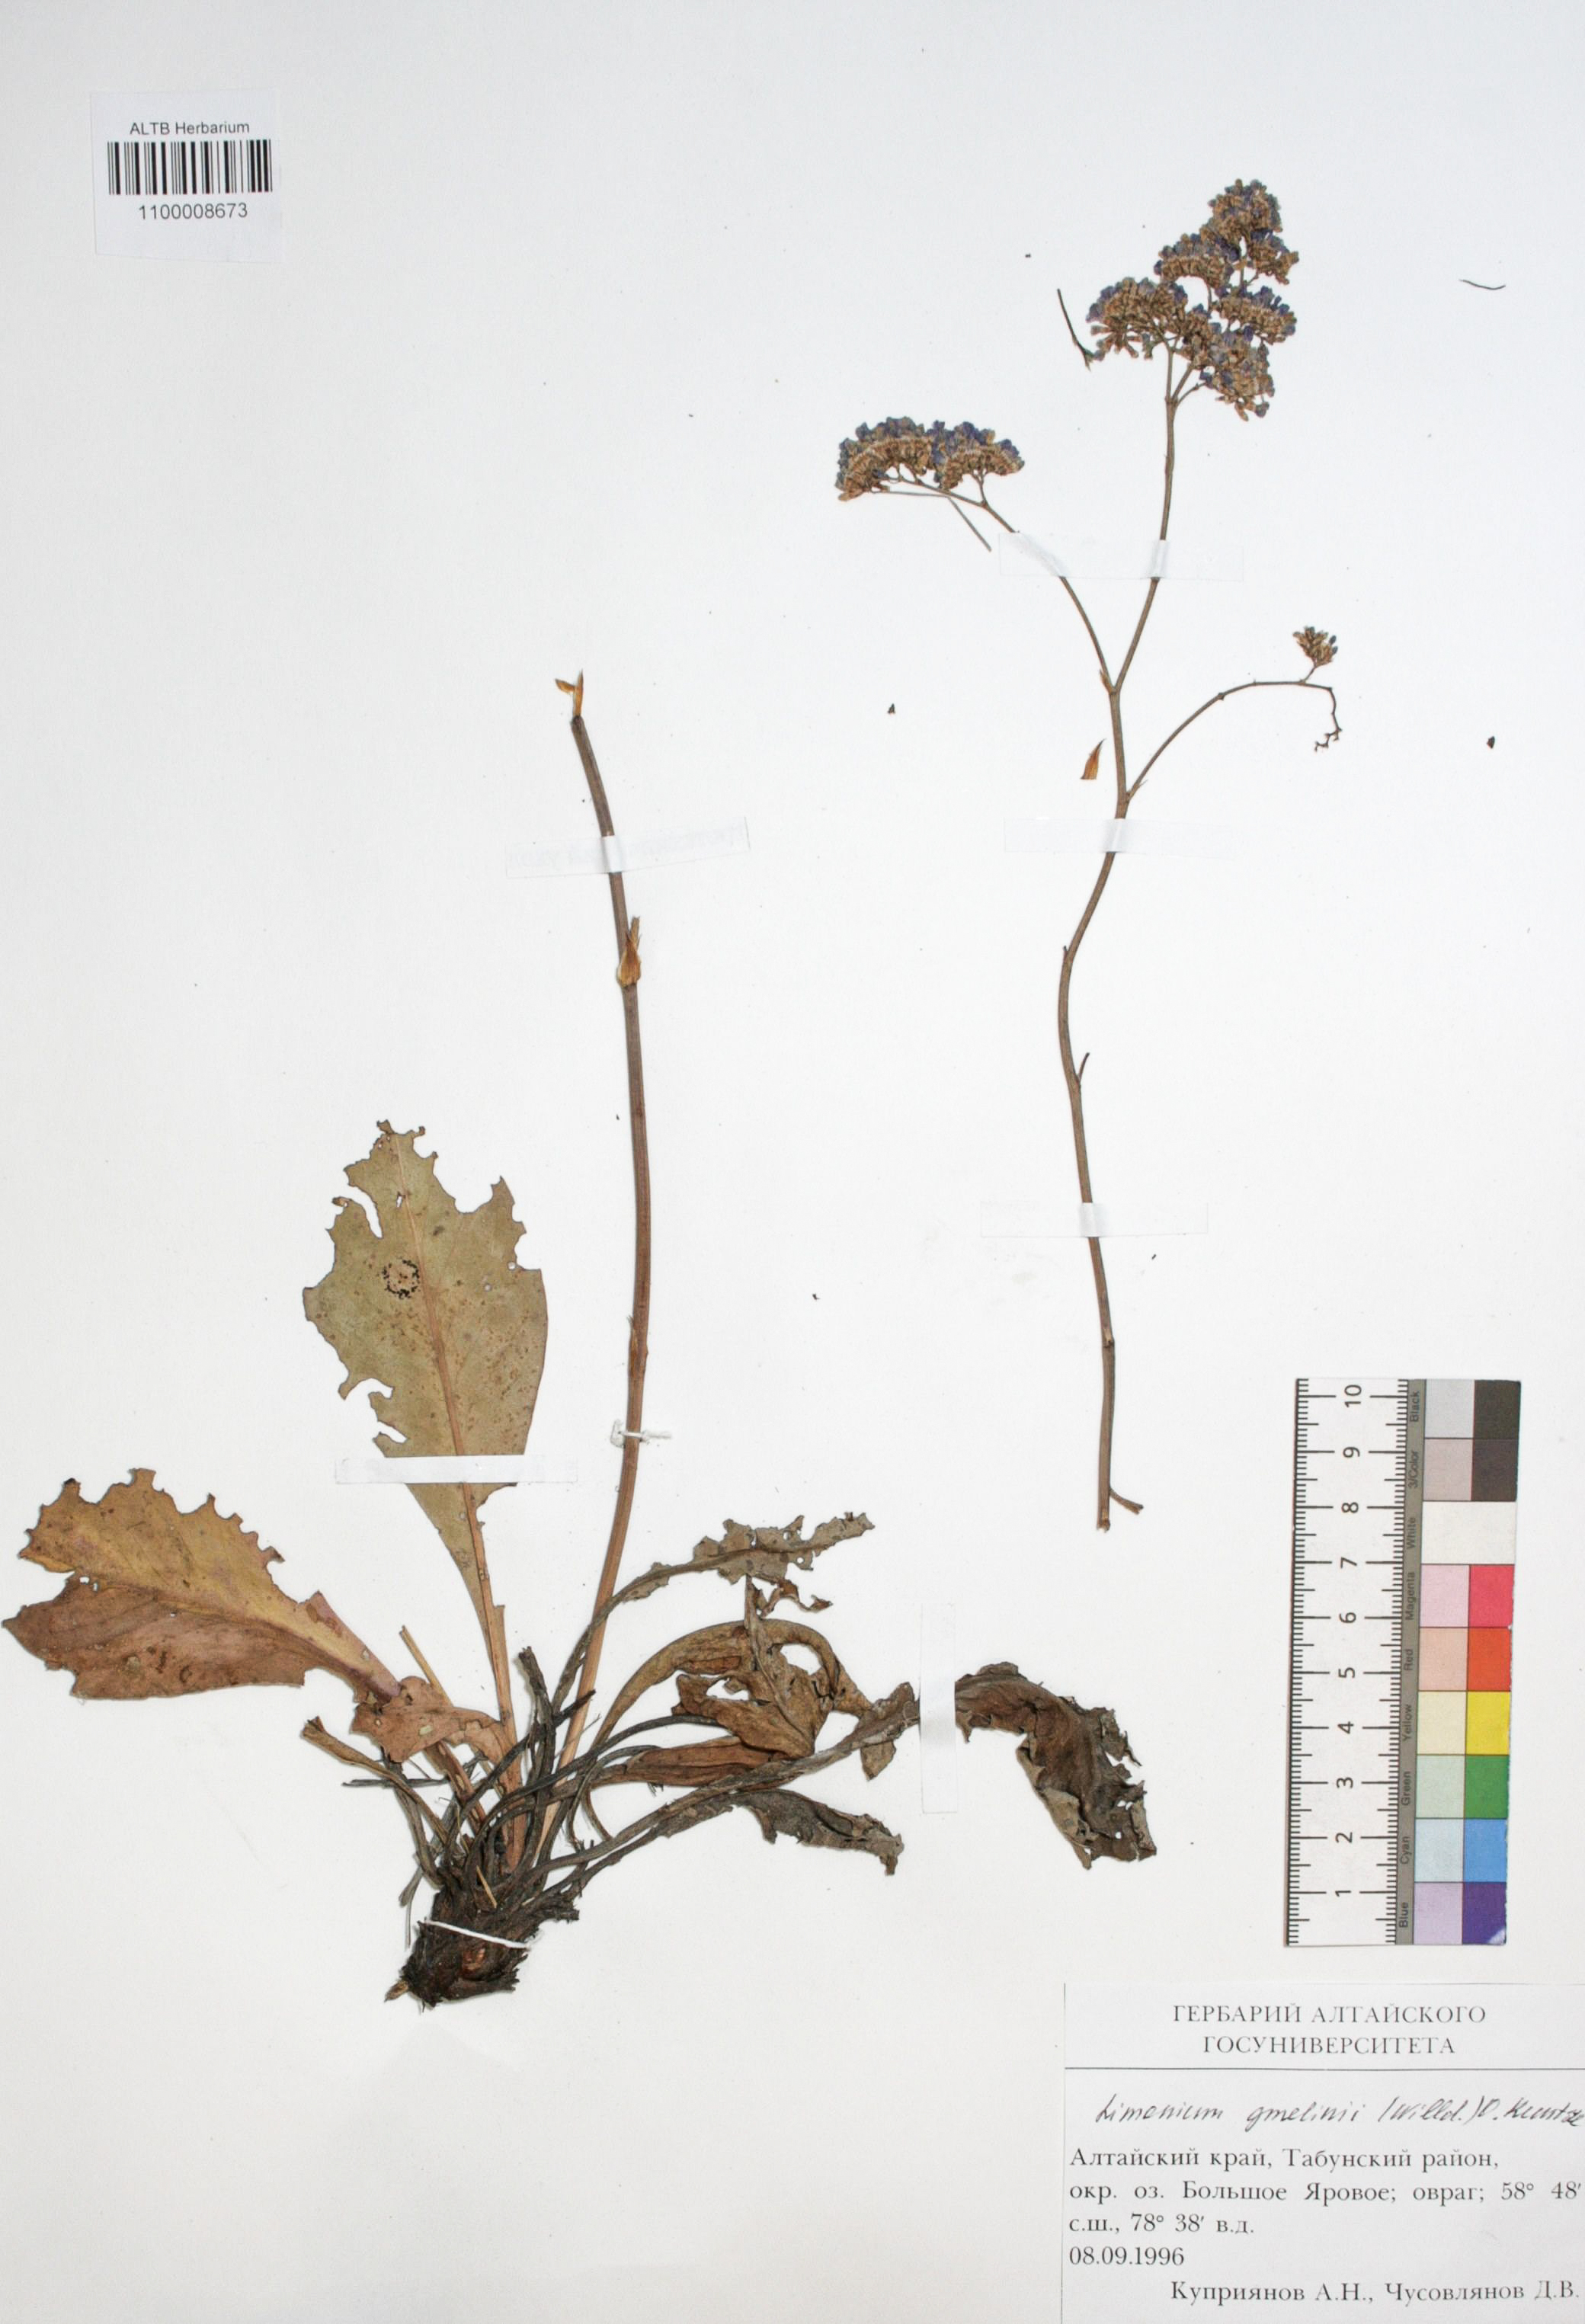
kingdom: Plantae
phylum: Tracheophyta
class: Magnoliopsida
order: Caryophyllales
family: Plumbaginaceae
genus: Limonium
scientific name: Limonium gmelini
